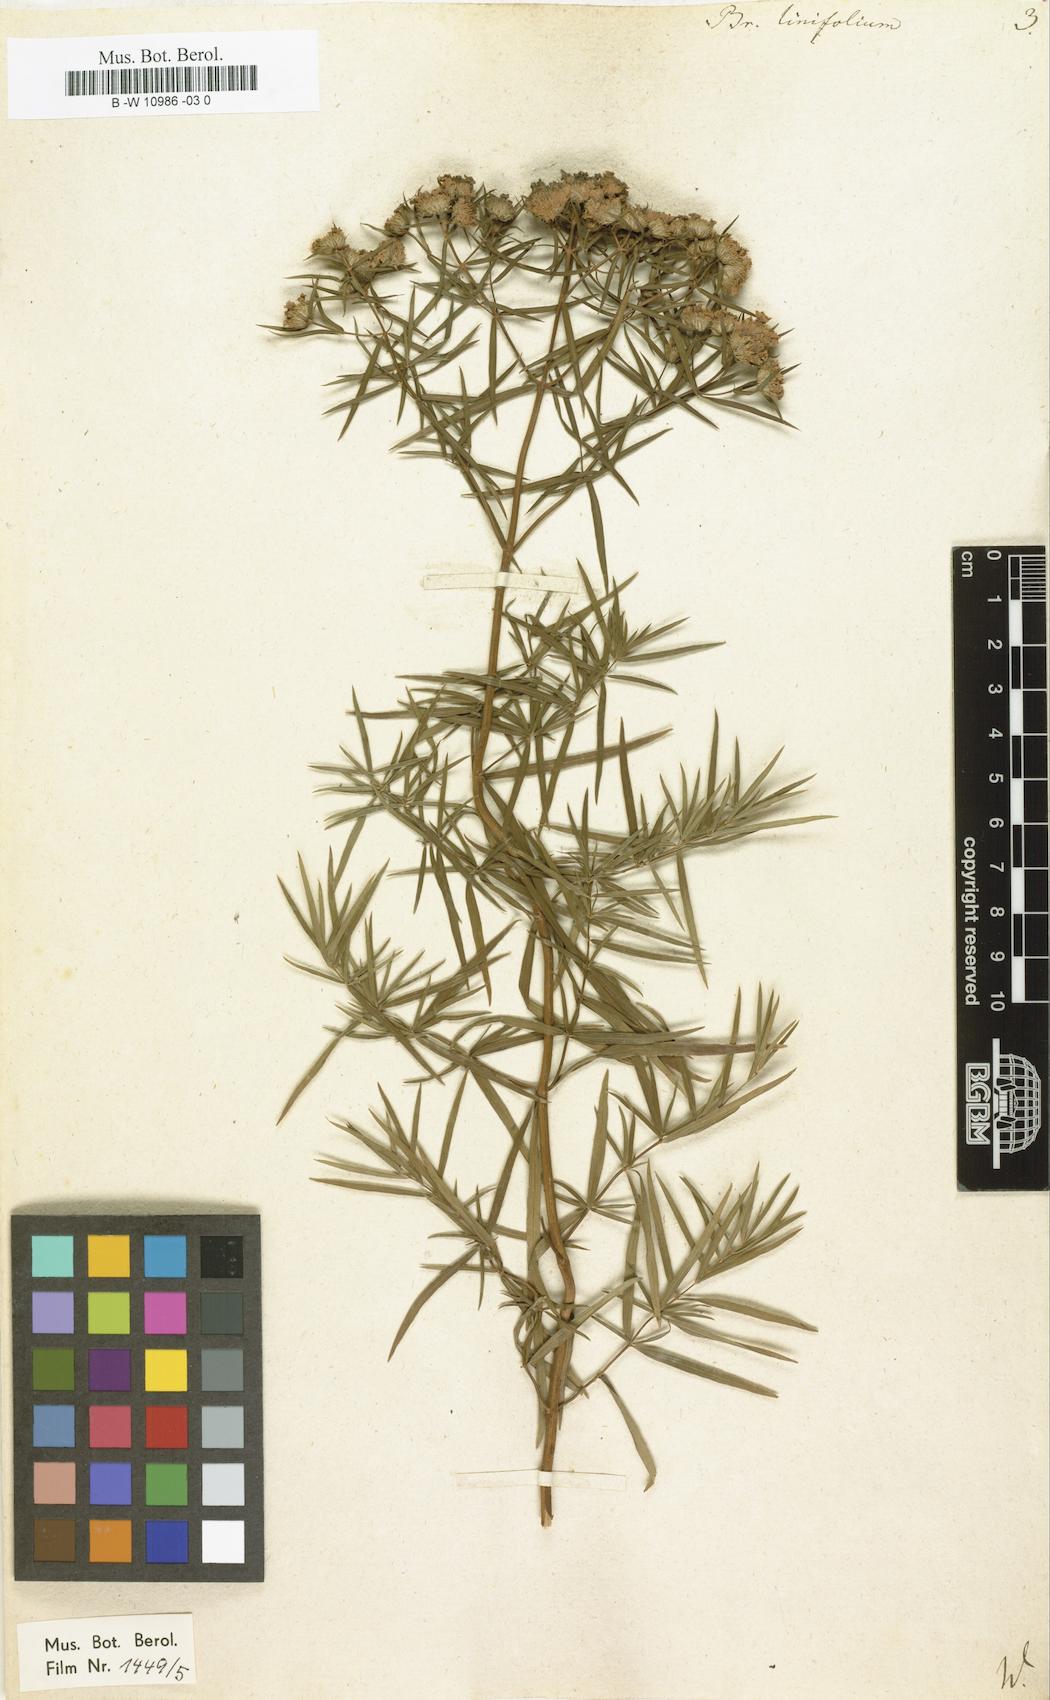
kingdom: Plantae
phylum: Tracheophyta
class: Magnoliopsida
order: Lamiales
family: Lamiaceae
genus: Pycnanthemum
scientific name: Pycnanthemum flexuosum
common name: Appalachian mountain-mint
